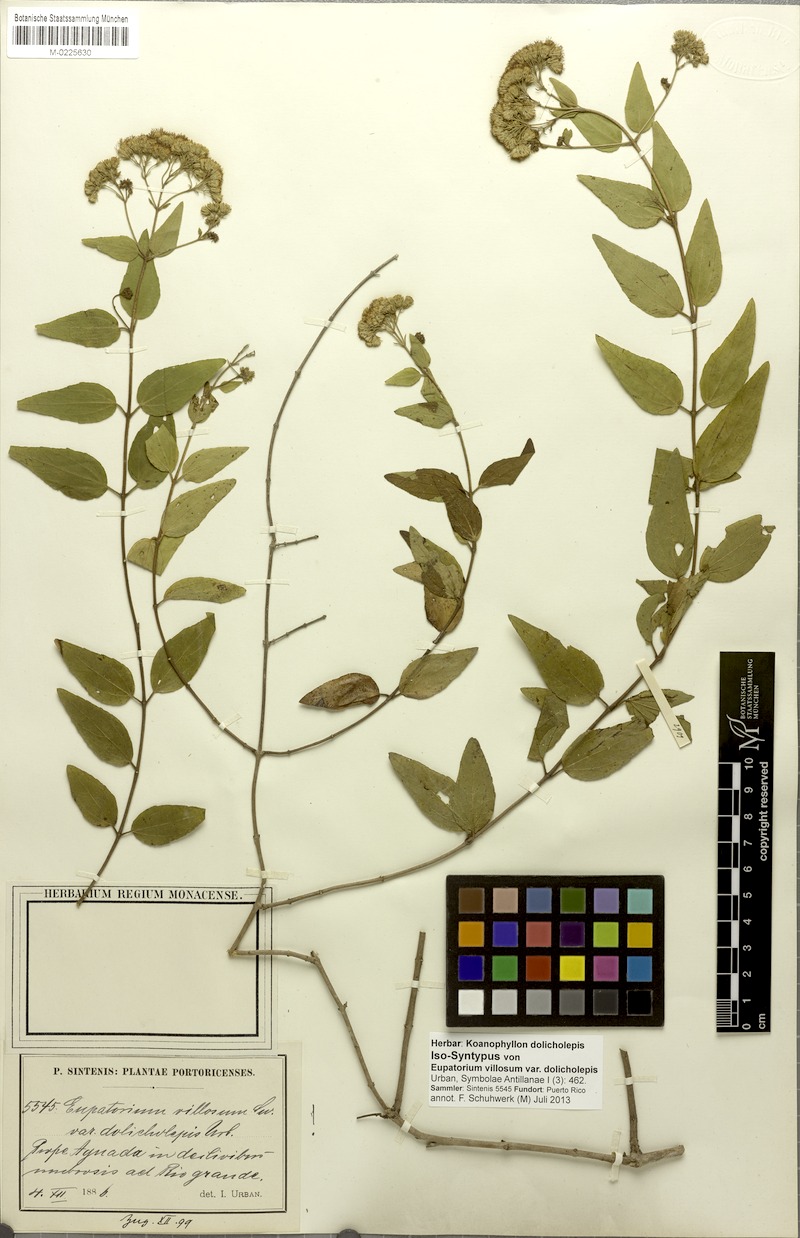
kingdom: Plantae
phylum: Tracheophyta
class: Magnoliopsida
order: Asterales
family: Asteraceae
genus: Koanophyllon
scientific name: Koanophyllon dolicholepis
